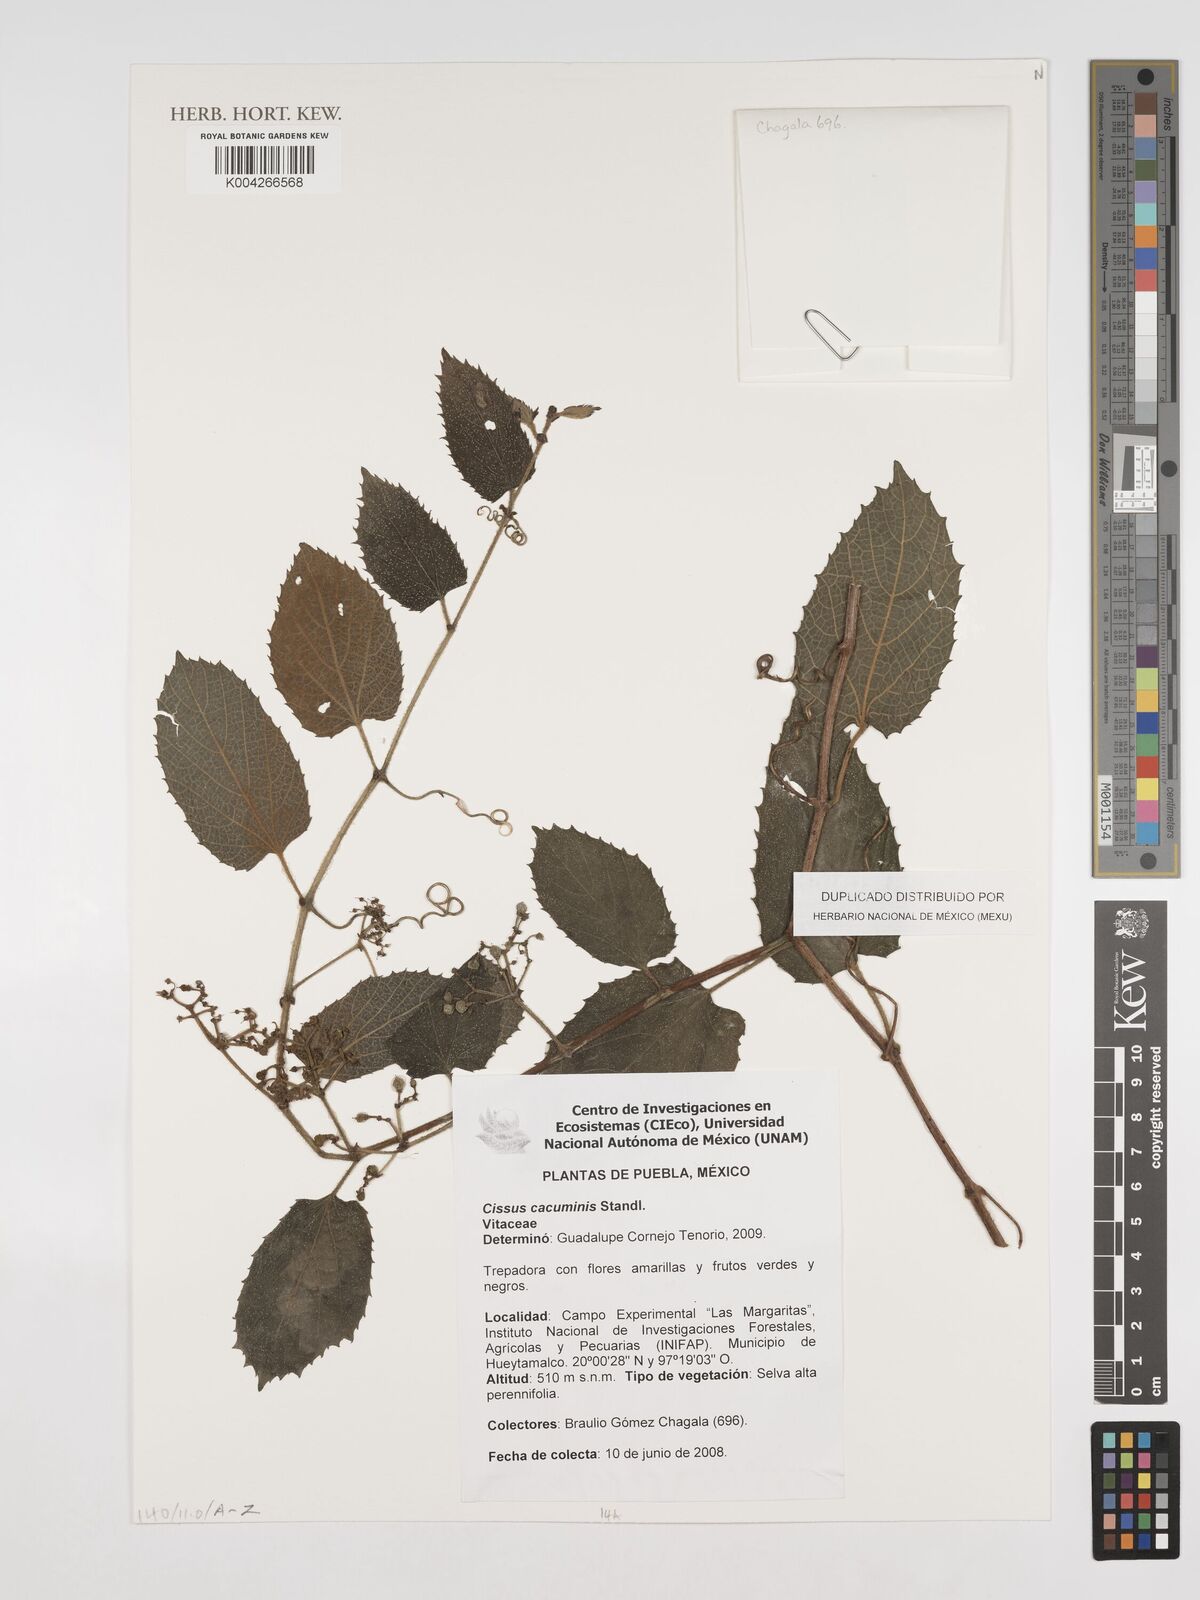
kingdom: Plantae
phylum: Tracheophyta
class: Magnoliopsida
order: Vitales
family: Vitaceae
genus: Cissus
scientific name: Cissus cacuminis
